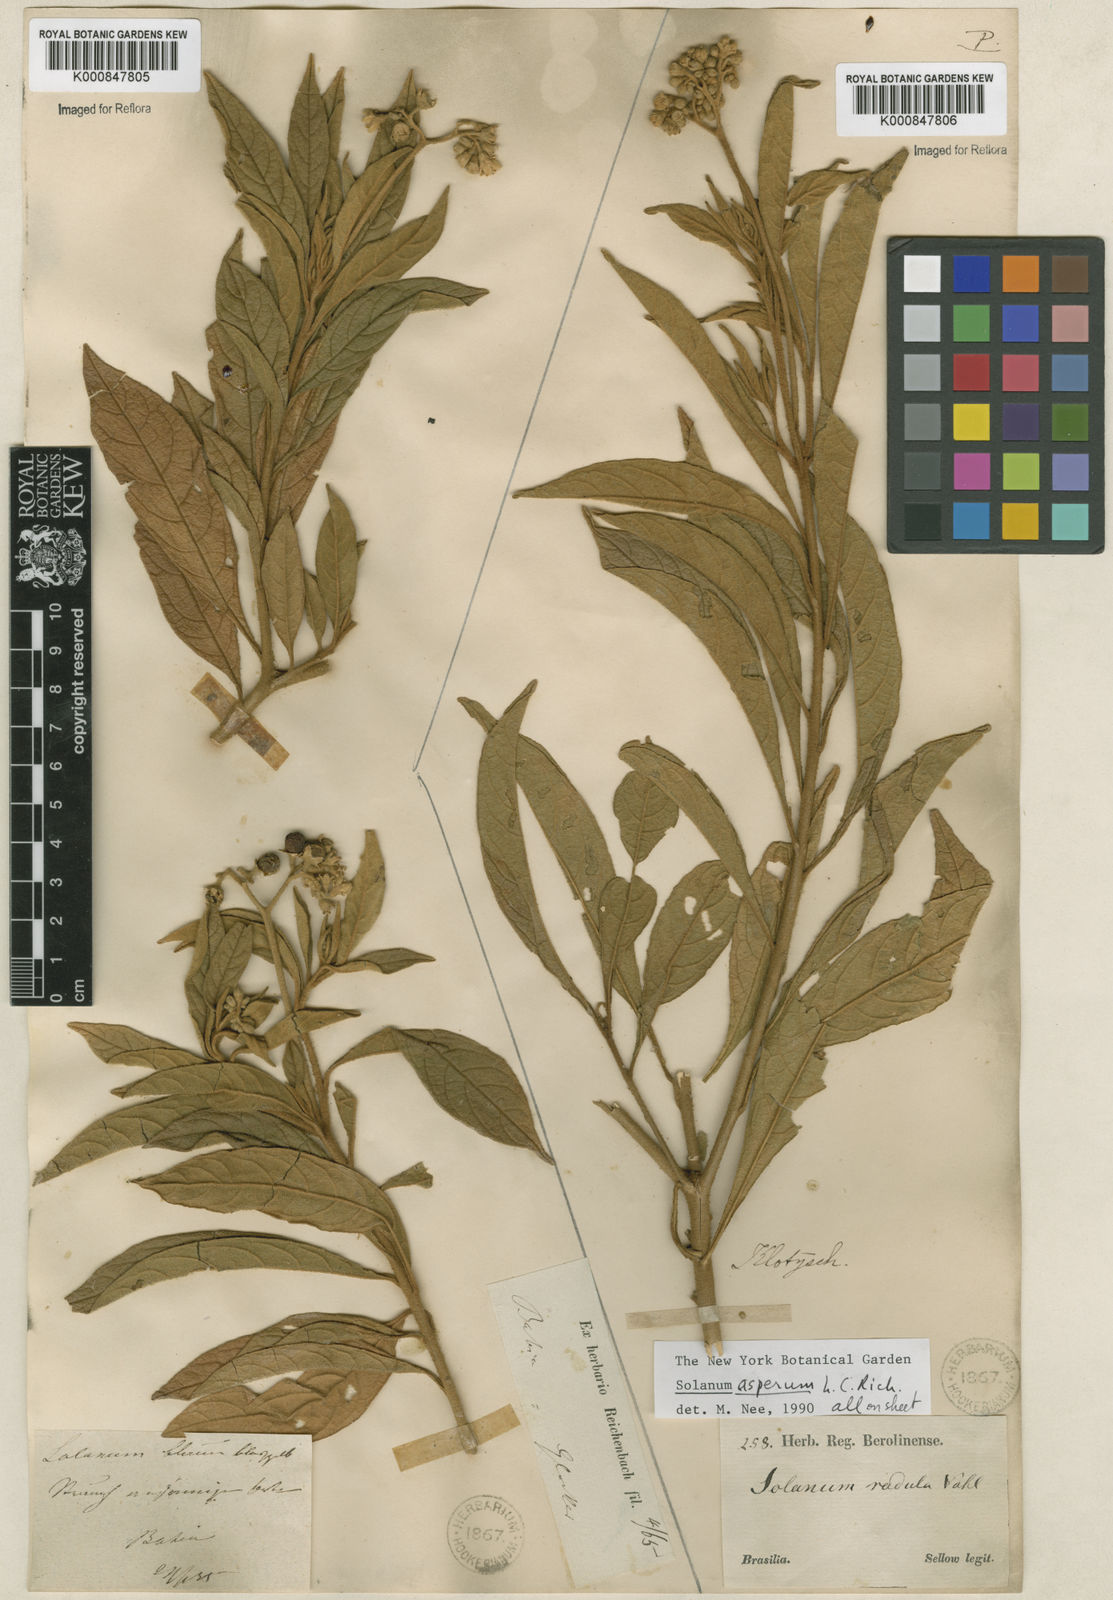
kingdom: Plantae
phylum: Tracheophyta
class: Magnoliopsida
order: Solanales
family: Solanaceae
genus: Solanum
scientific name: Solanum asperum
